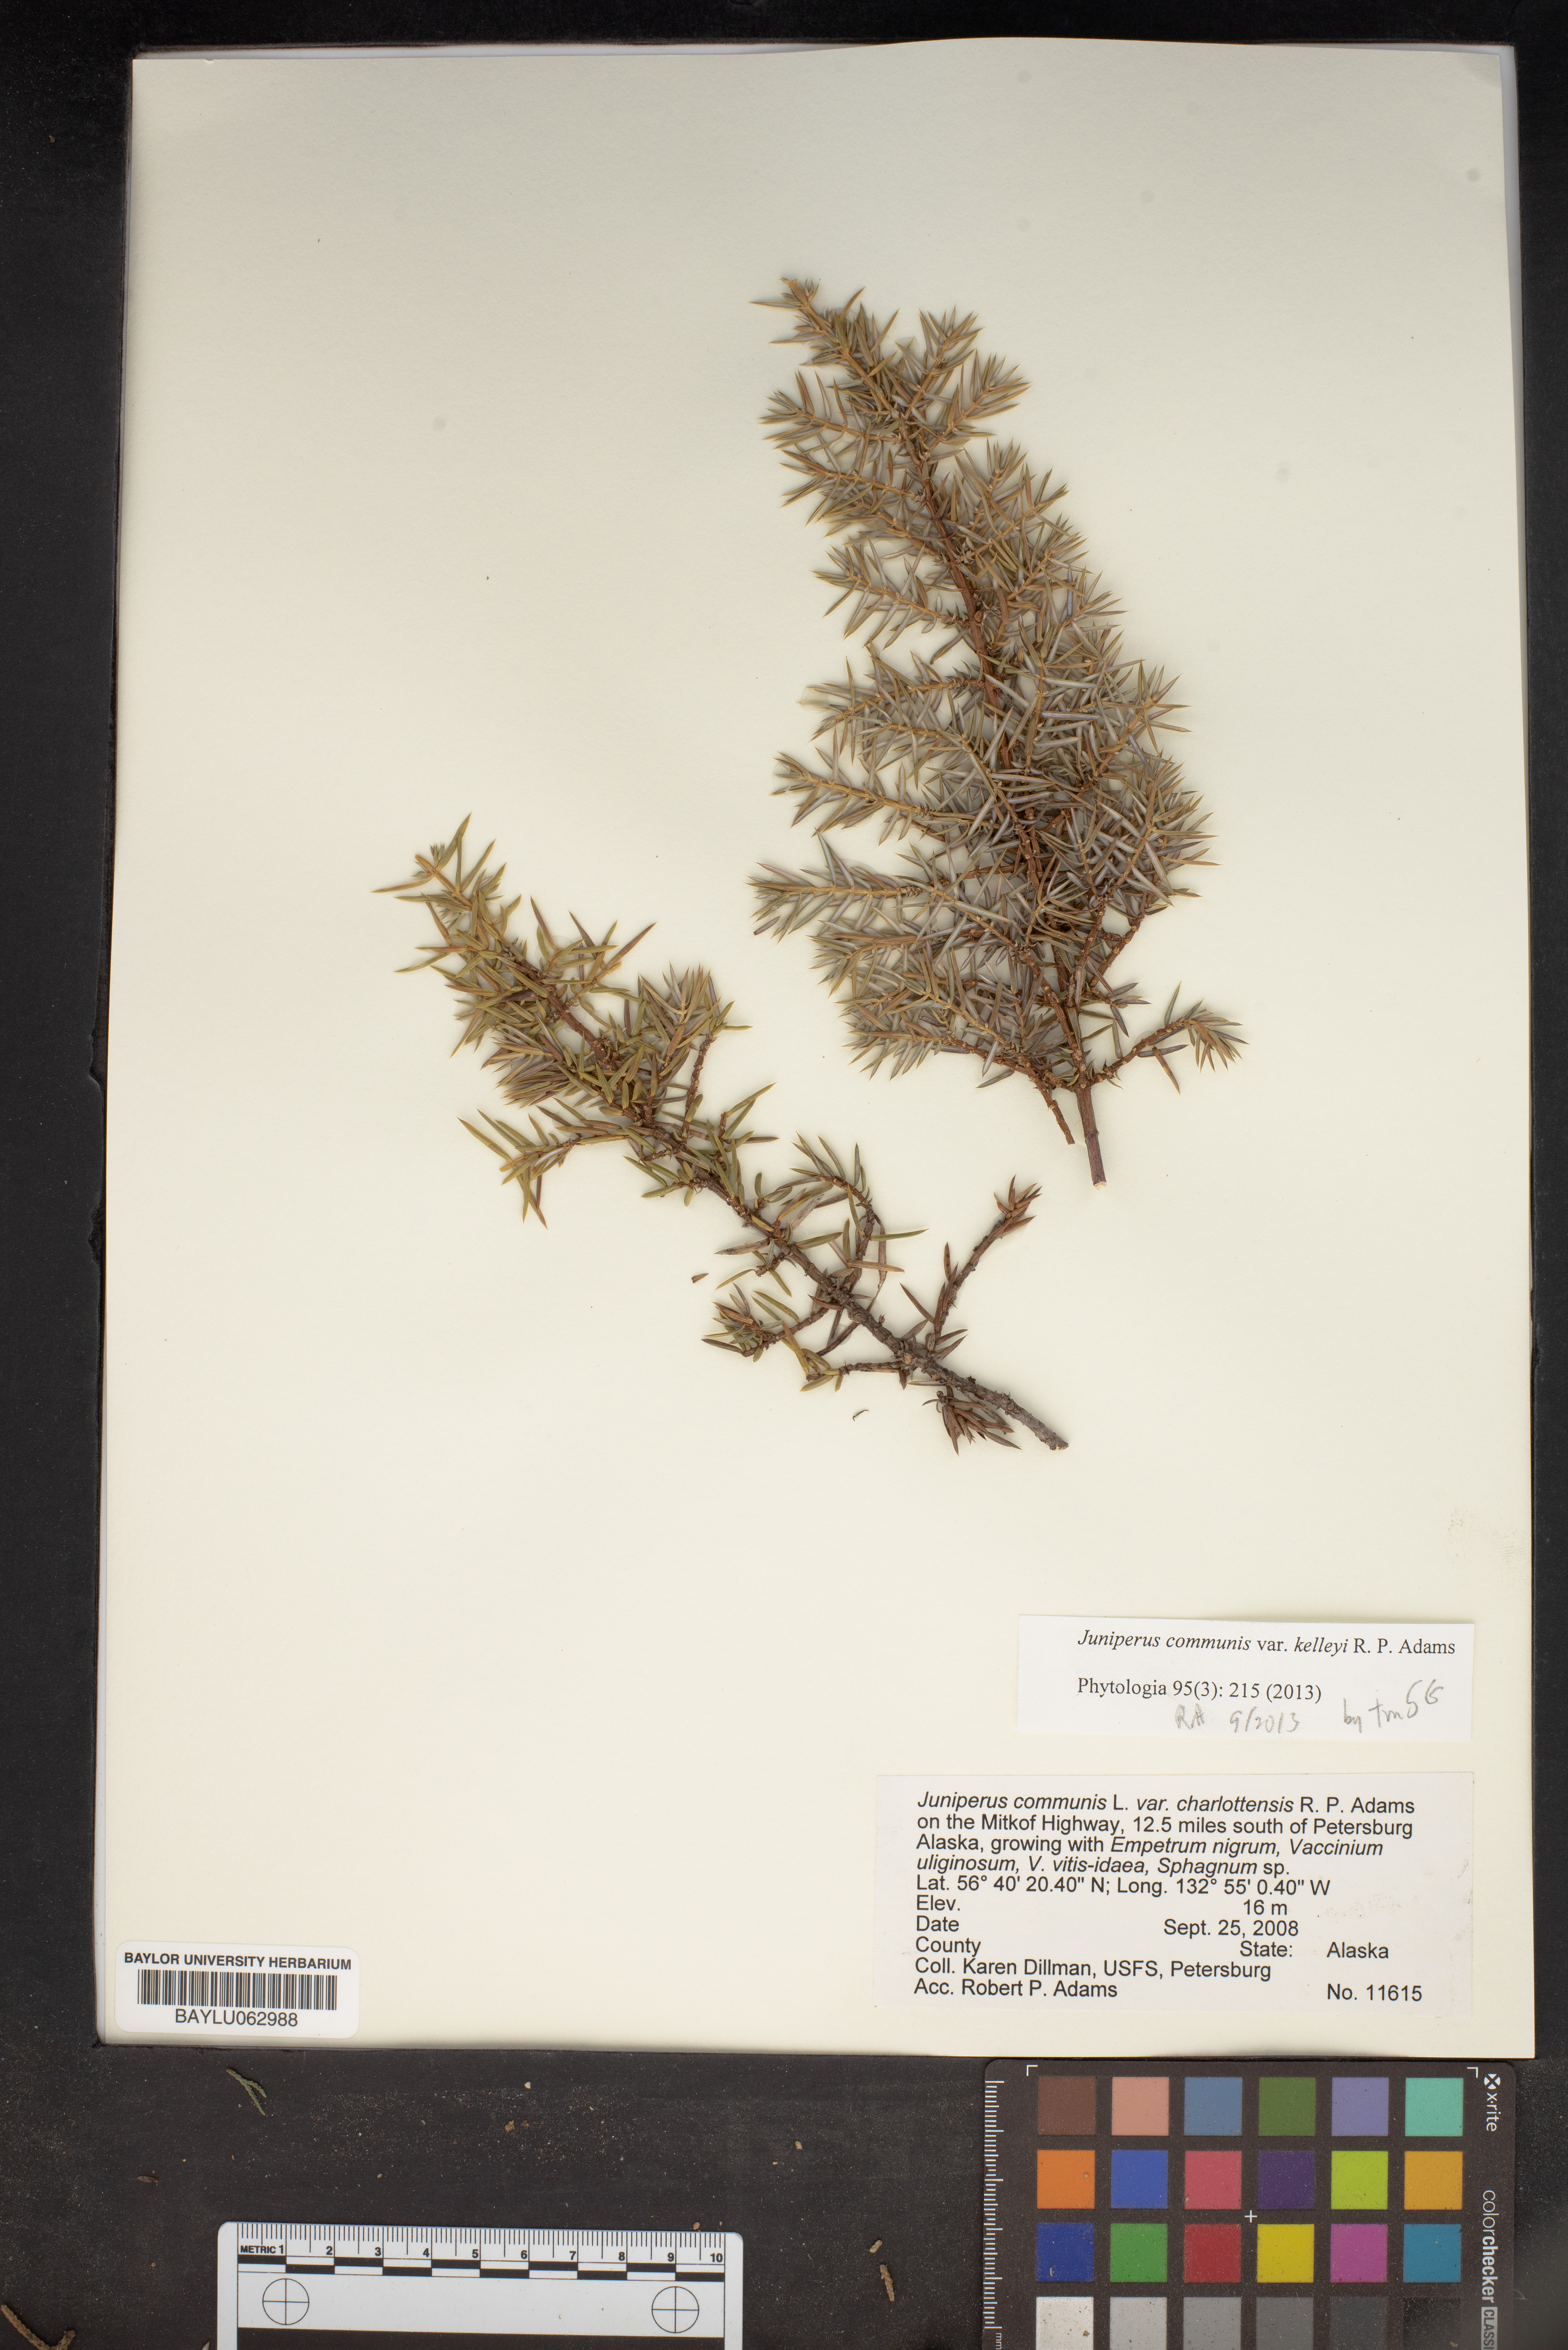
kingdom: Plantae
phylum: Tracheophyta
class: Pinopsida
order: Pinales
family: Cupressaceae
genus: Juniperus
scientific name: Juniperus communis
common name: Common juniper
